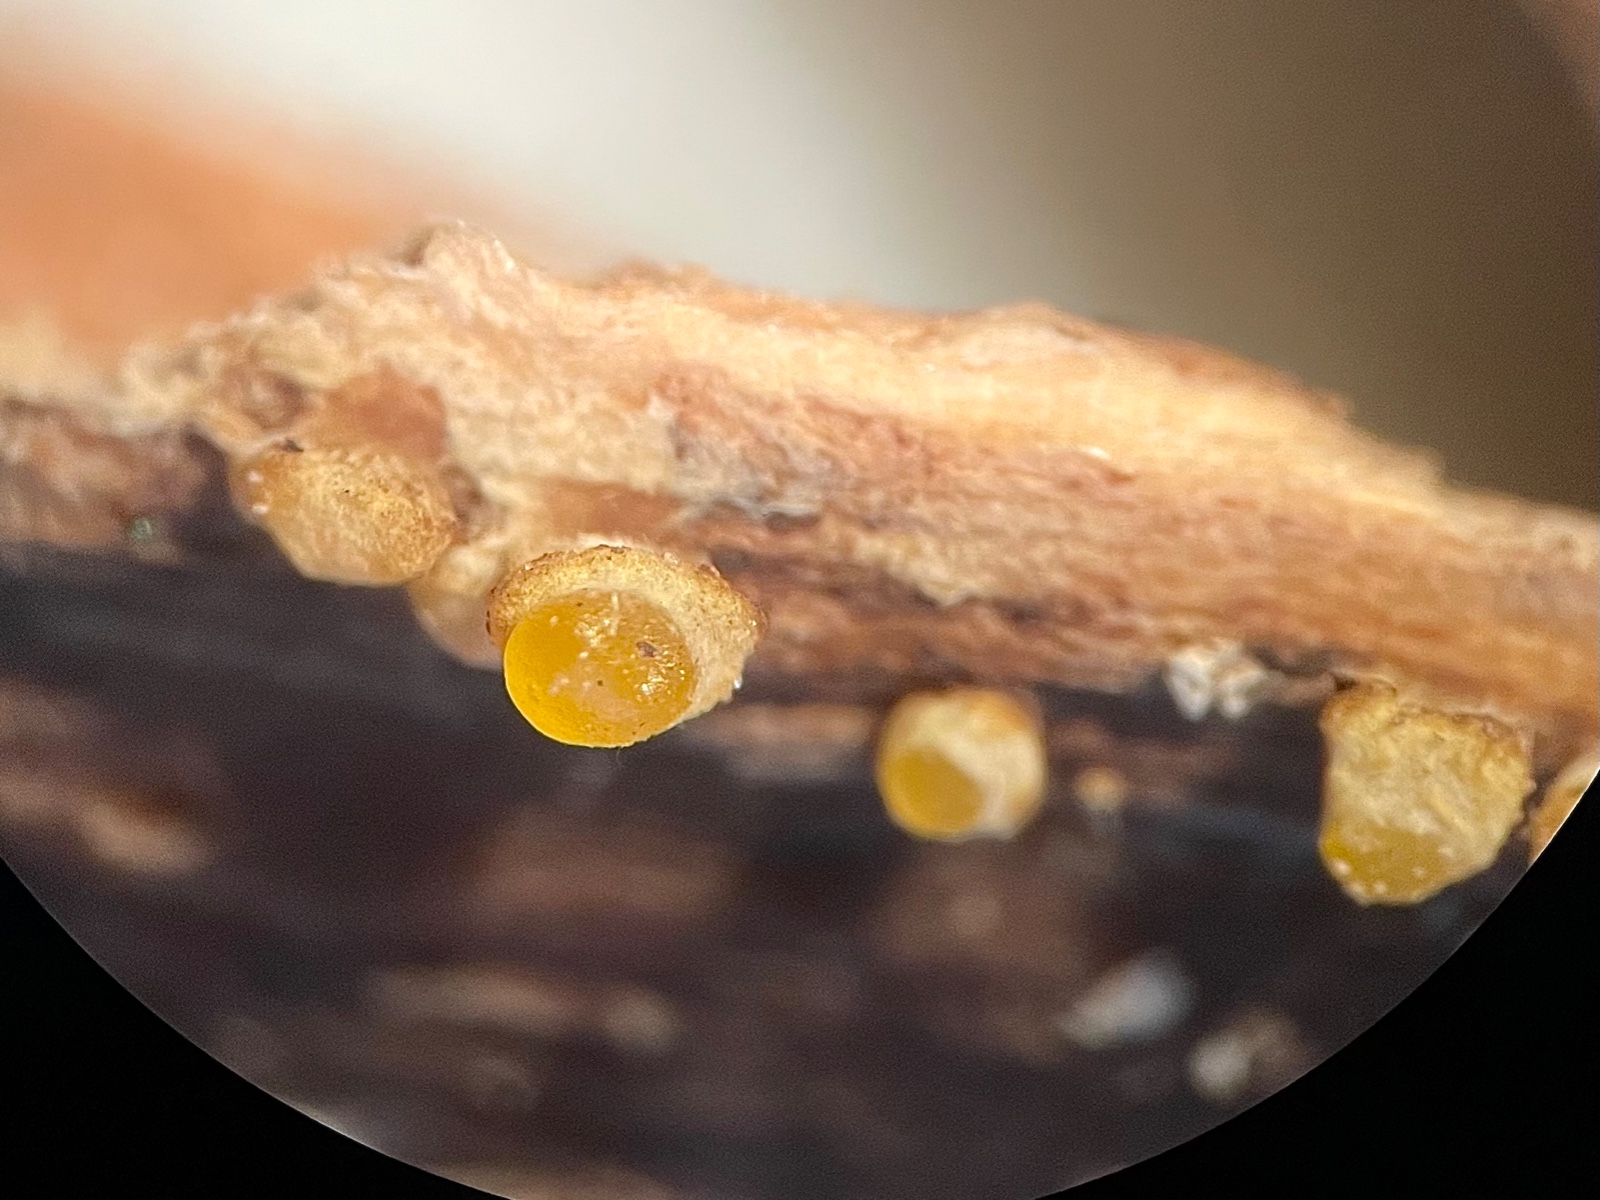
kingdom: Fungi
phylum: Basidiomycota
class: Dacrymycetes
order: Dacrymycetales
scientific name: Dacrymycetales
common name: tåresvampordenen
